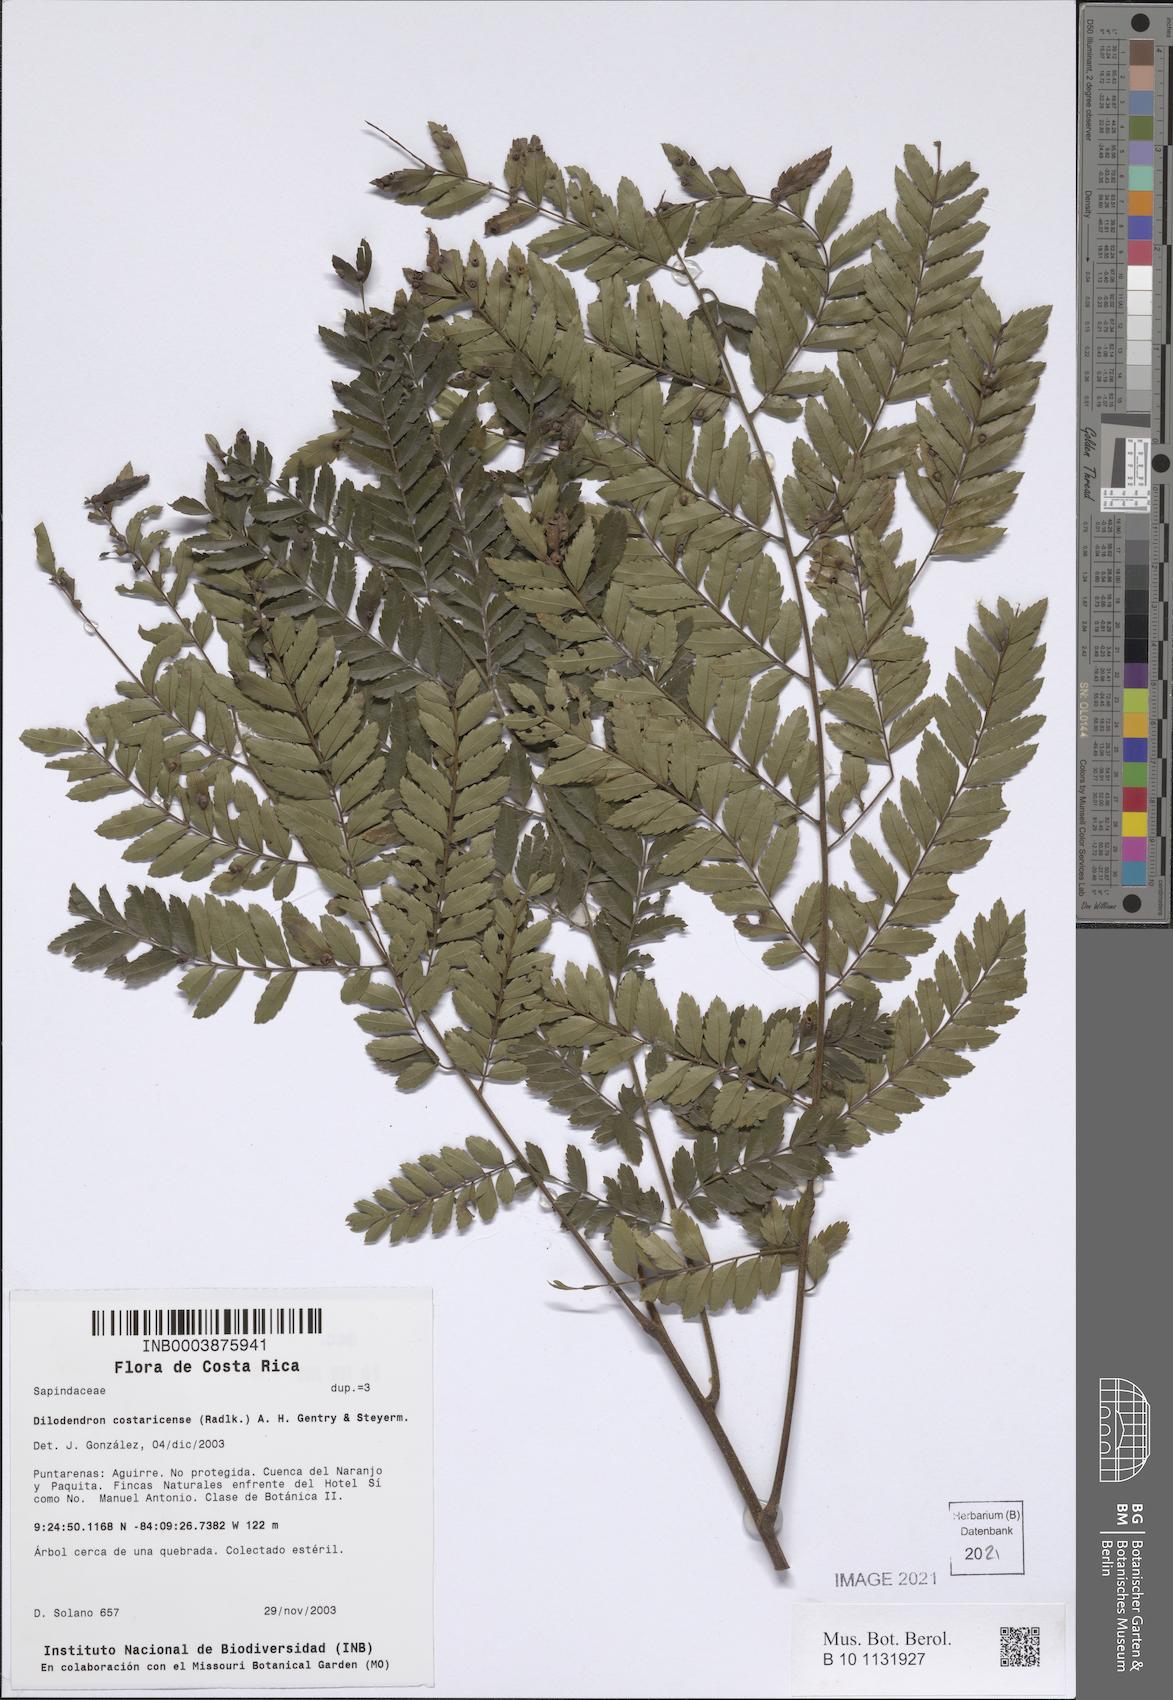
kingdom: Plantae
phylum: Tracheophyta
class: Magnoliopsida
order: Sapindales
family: Sapindaceae
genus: Dilodendron
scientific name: Dilodendron costaricense
